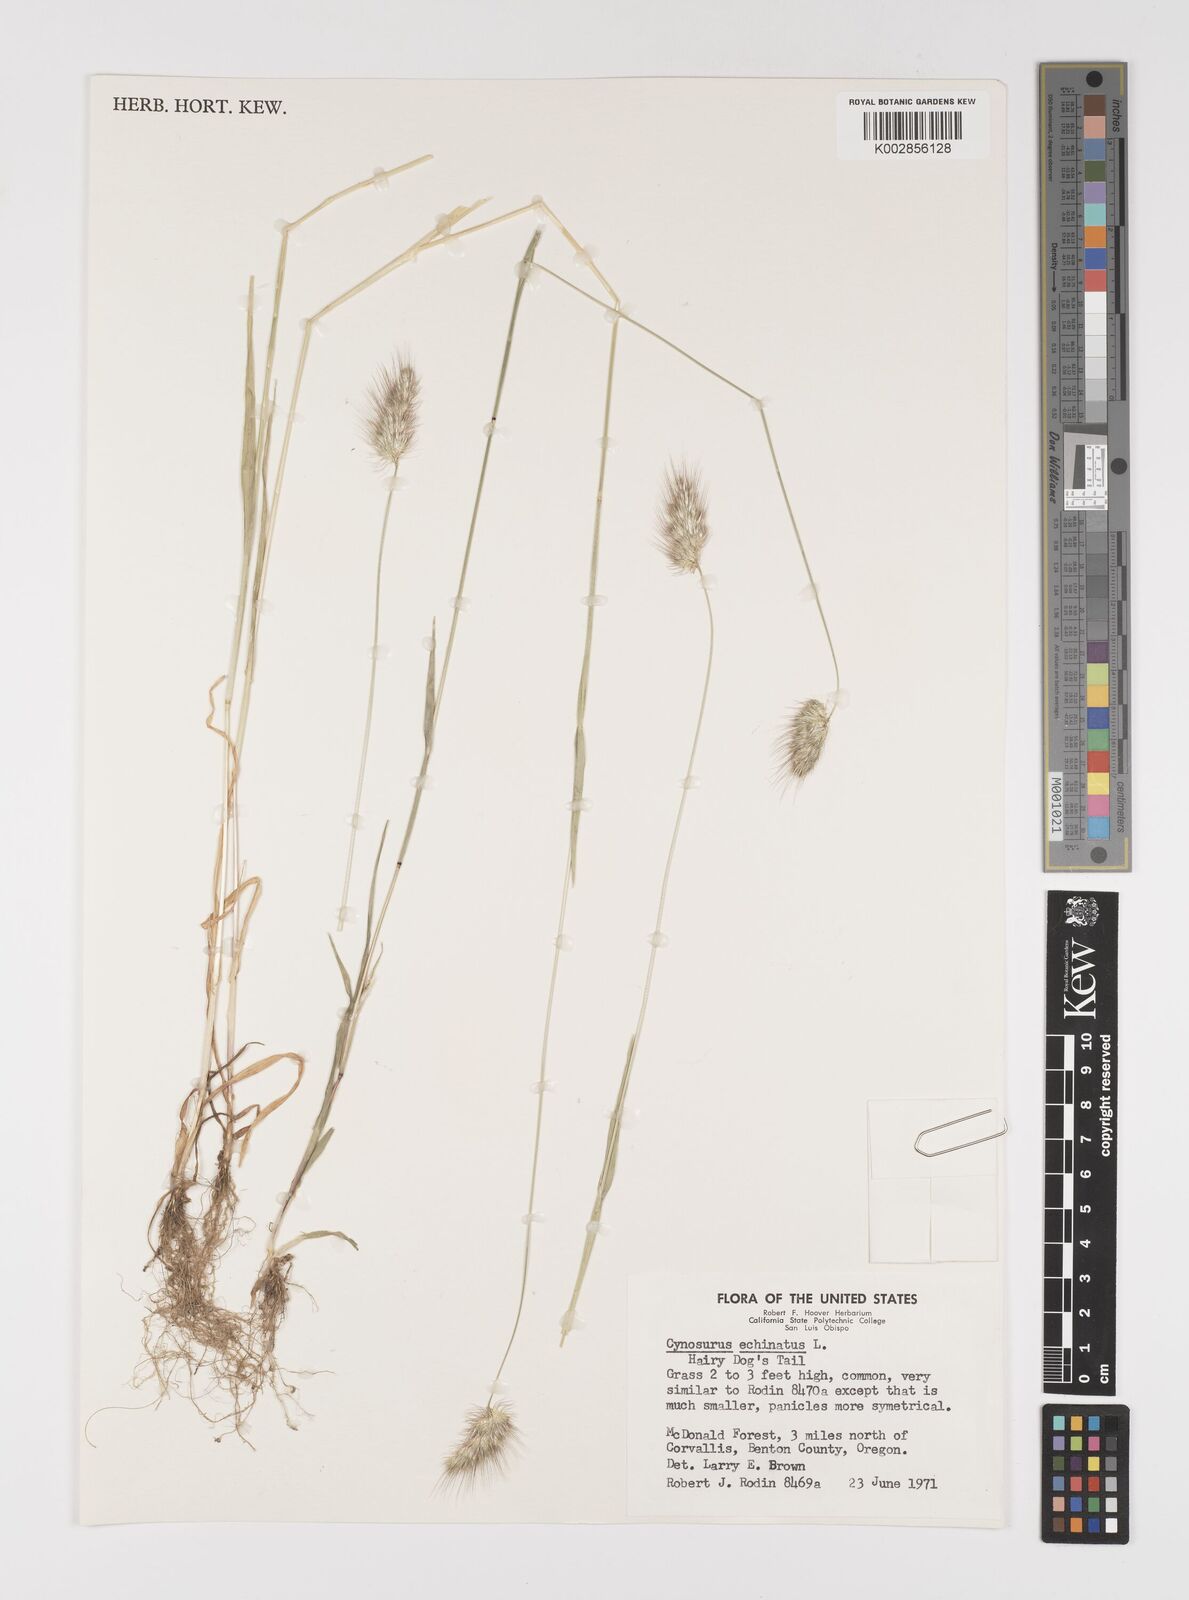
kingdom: Plantae
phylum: Tracheophyta
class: Liliopsida
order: Poales
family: Poaceae
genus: Cynosurus
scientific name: Cynosurus echinatus
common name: Rough dog's-tail
